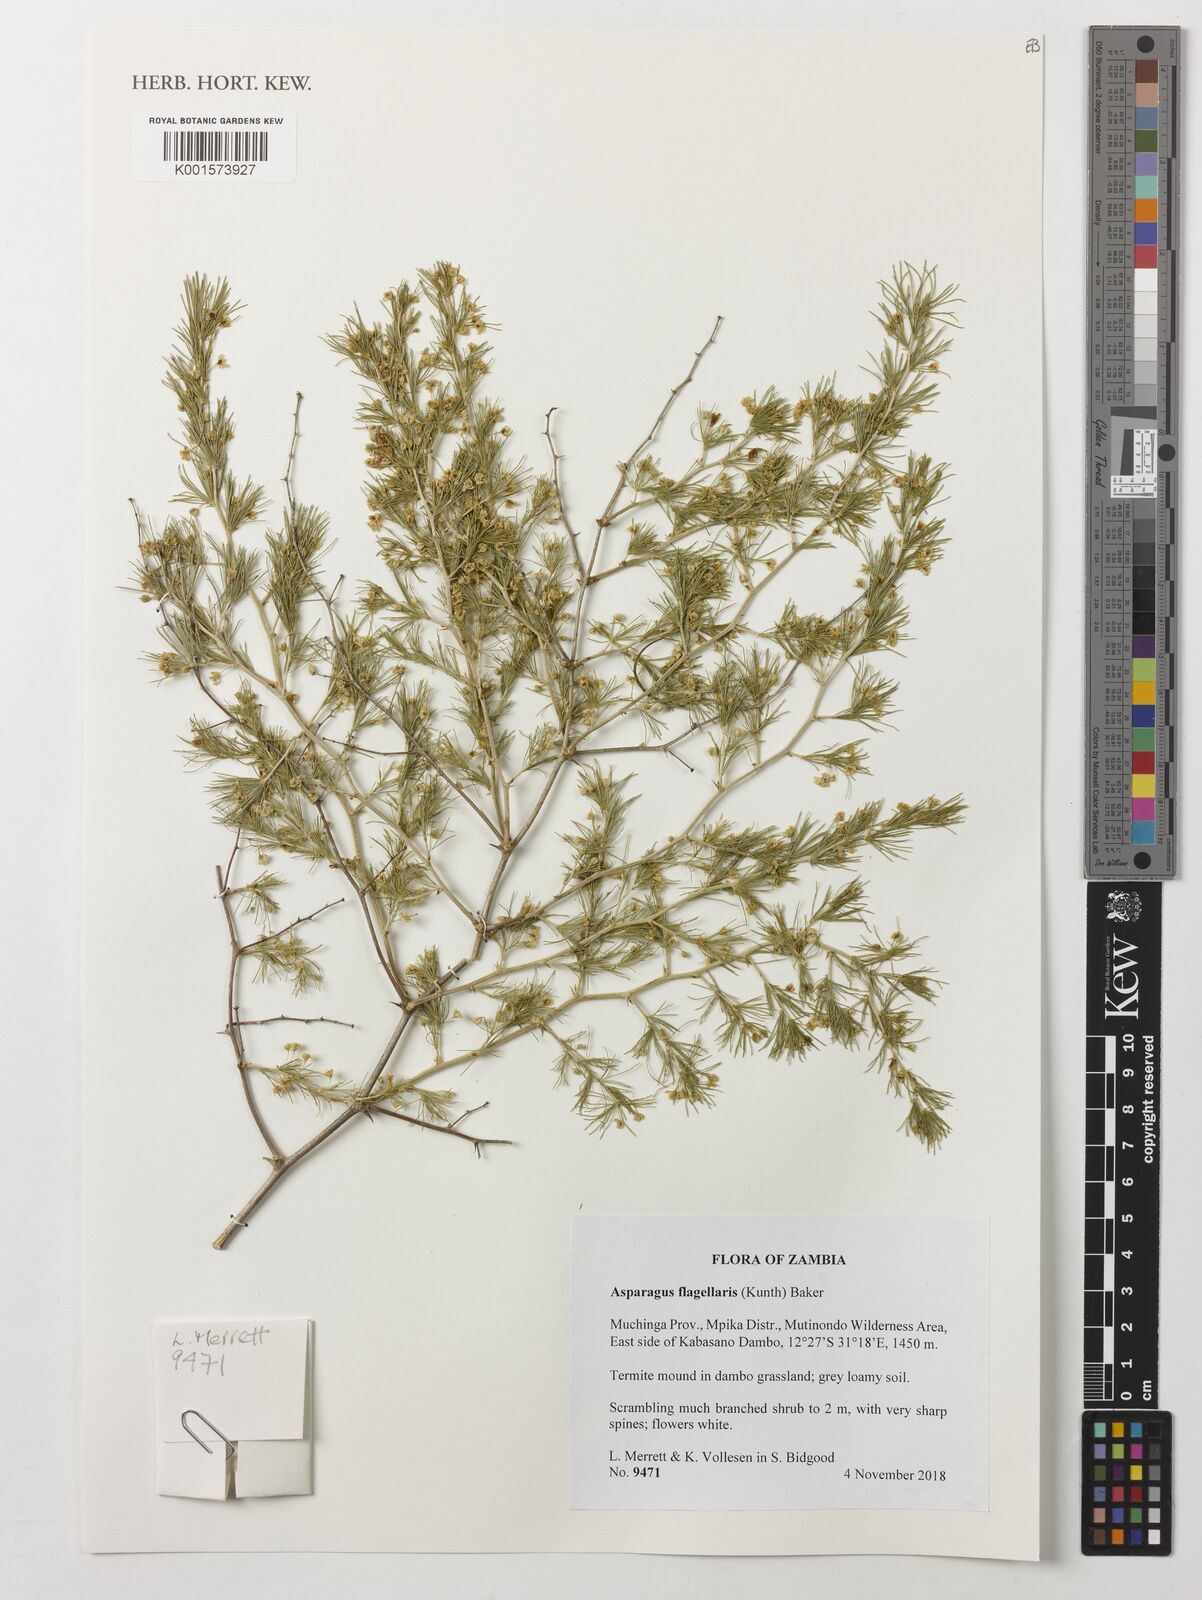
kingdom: Plantae
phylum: Tracheophyta
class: Liliopsida
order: Asparagales
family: Asparagaceae
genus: Asparagus
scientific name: Asparagus flagellaris
